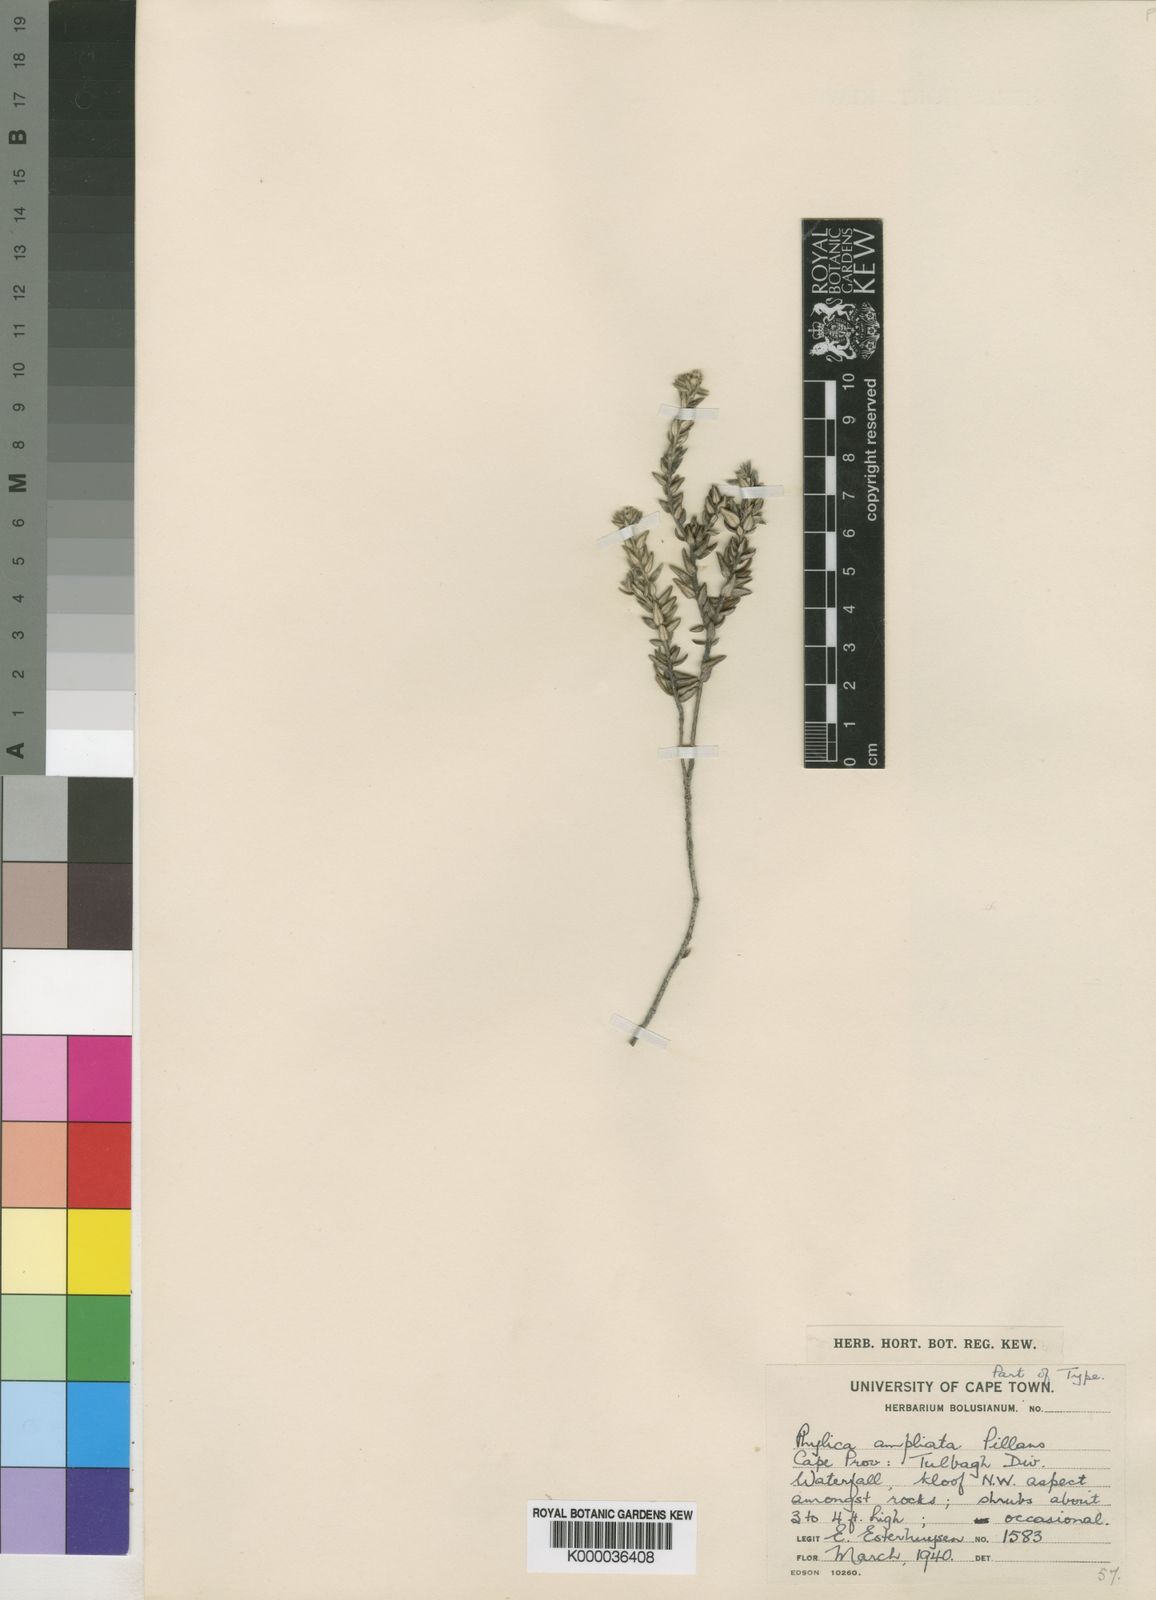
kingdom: Plantae
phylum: Tracheophyta
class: Magnoliopsida
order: Rosales
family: Rhamnaceae
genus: Phylica
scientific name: Phylica ampliata
